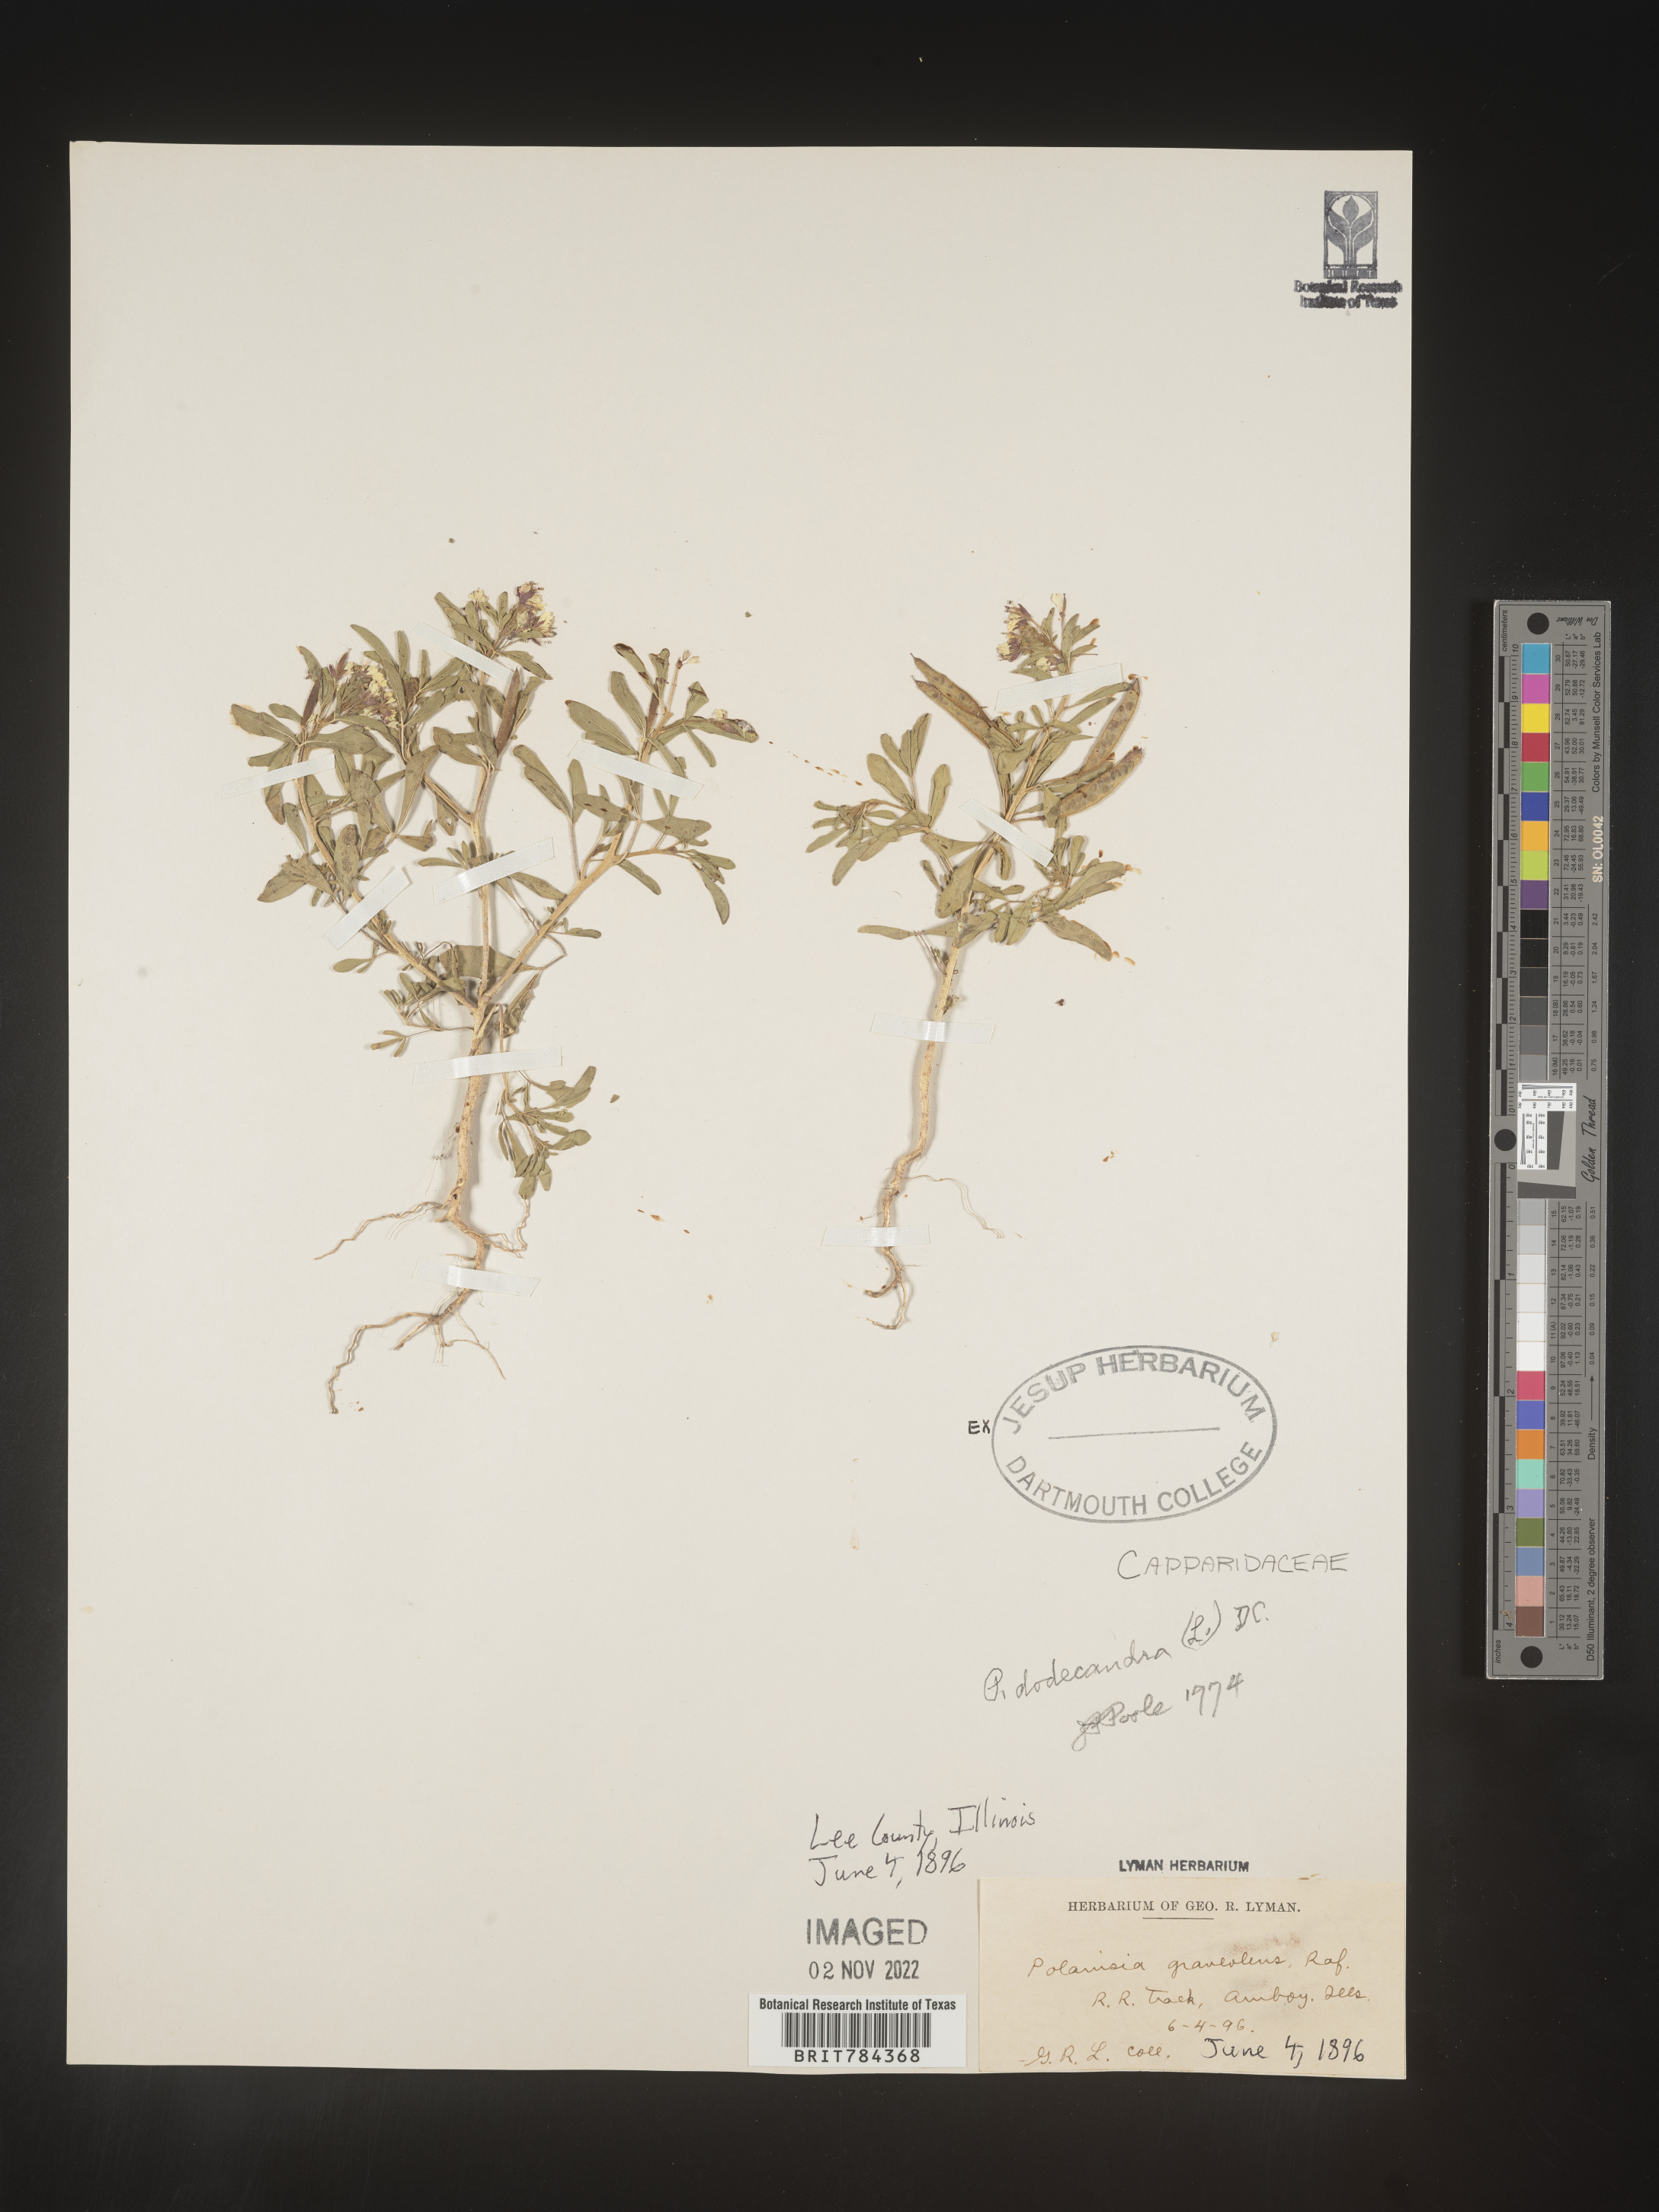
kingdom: Plantae
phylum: Tracheophyta
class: Magnoliopsida
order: Brassicales
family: Cleomaceae
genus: Polanisia
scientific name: Polanisia dodecandra
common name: Clammyweed
